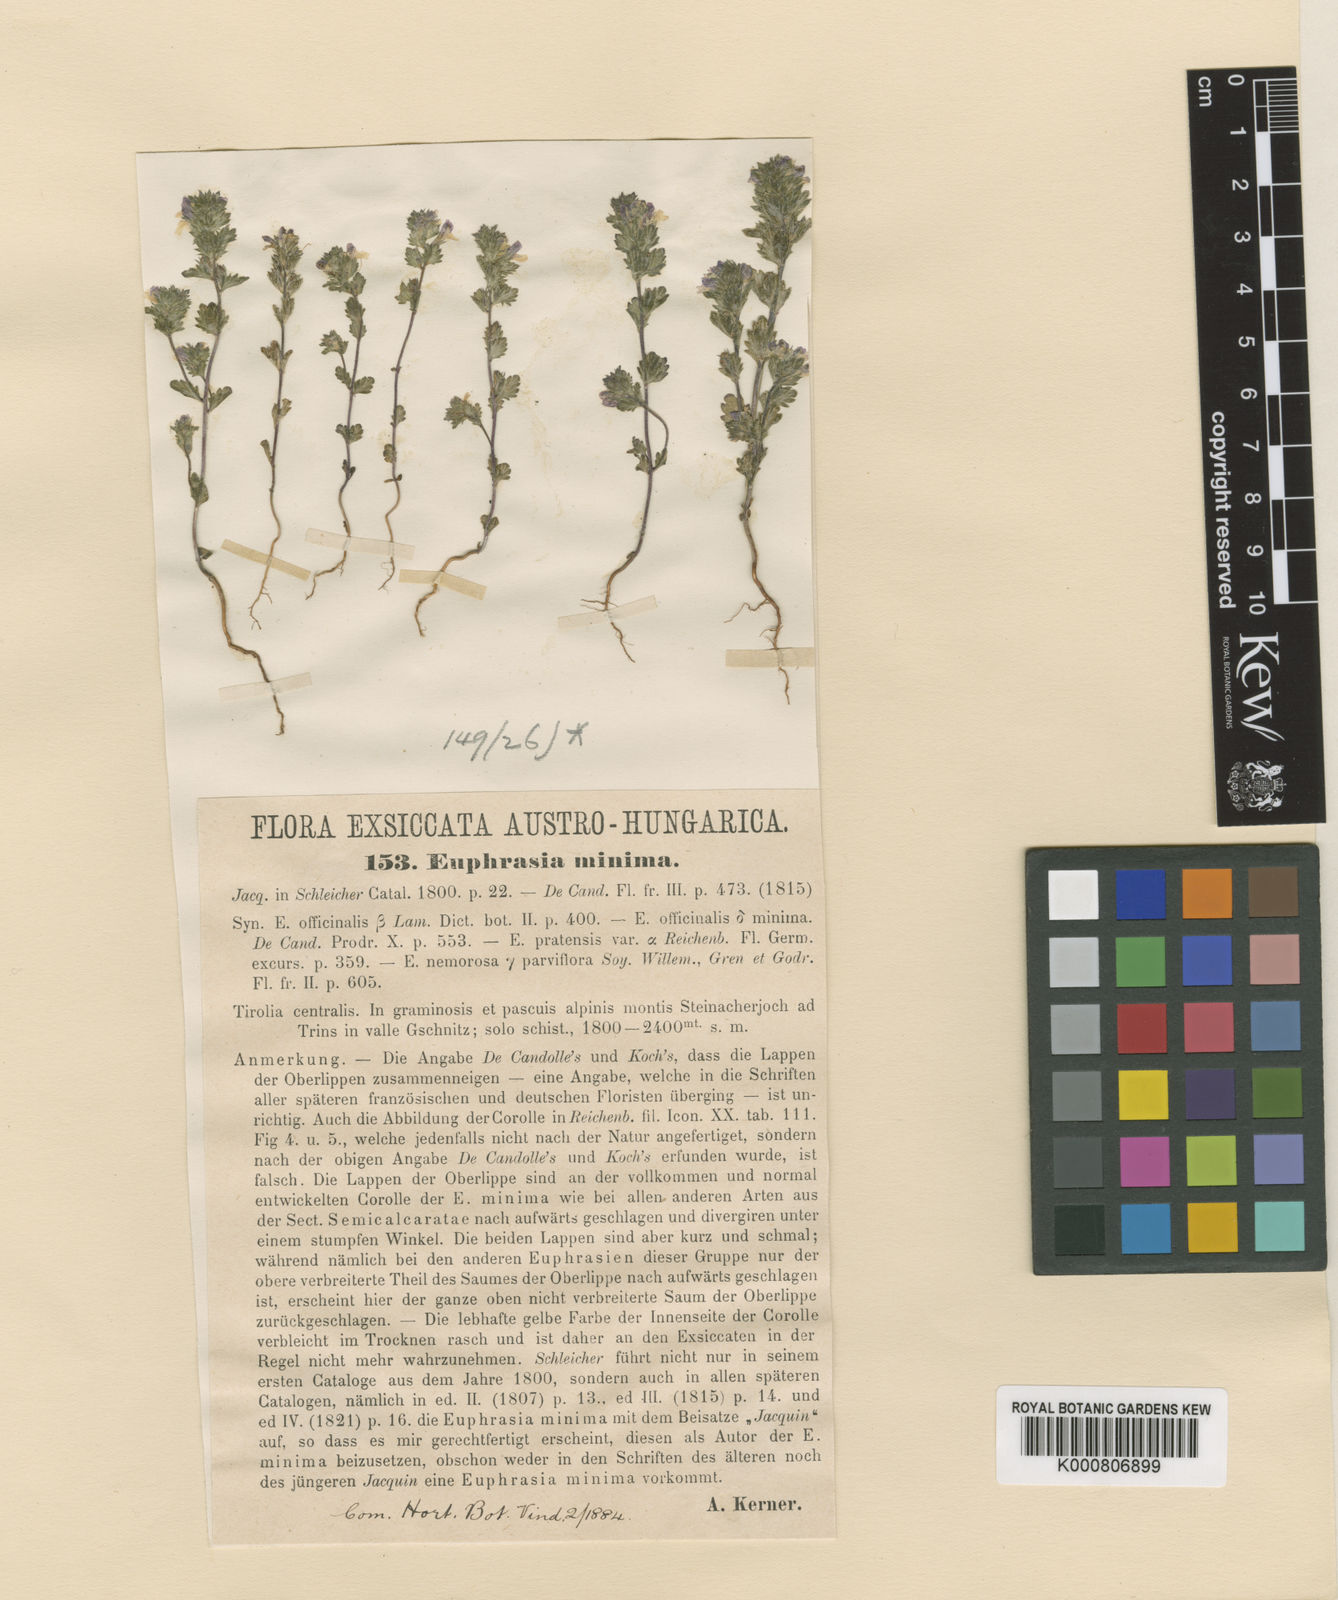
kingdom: Plantae
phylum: Tracheophyta
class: Magnoliopsida
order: Lamiales
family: Orobanchaceae
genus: Euphrasia
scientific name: Euphrasia
